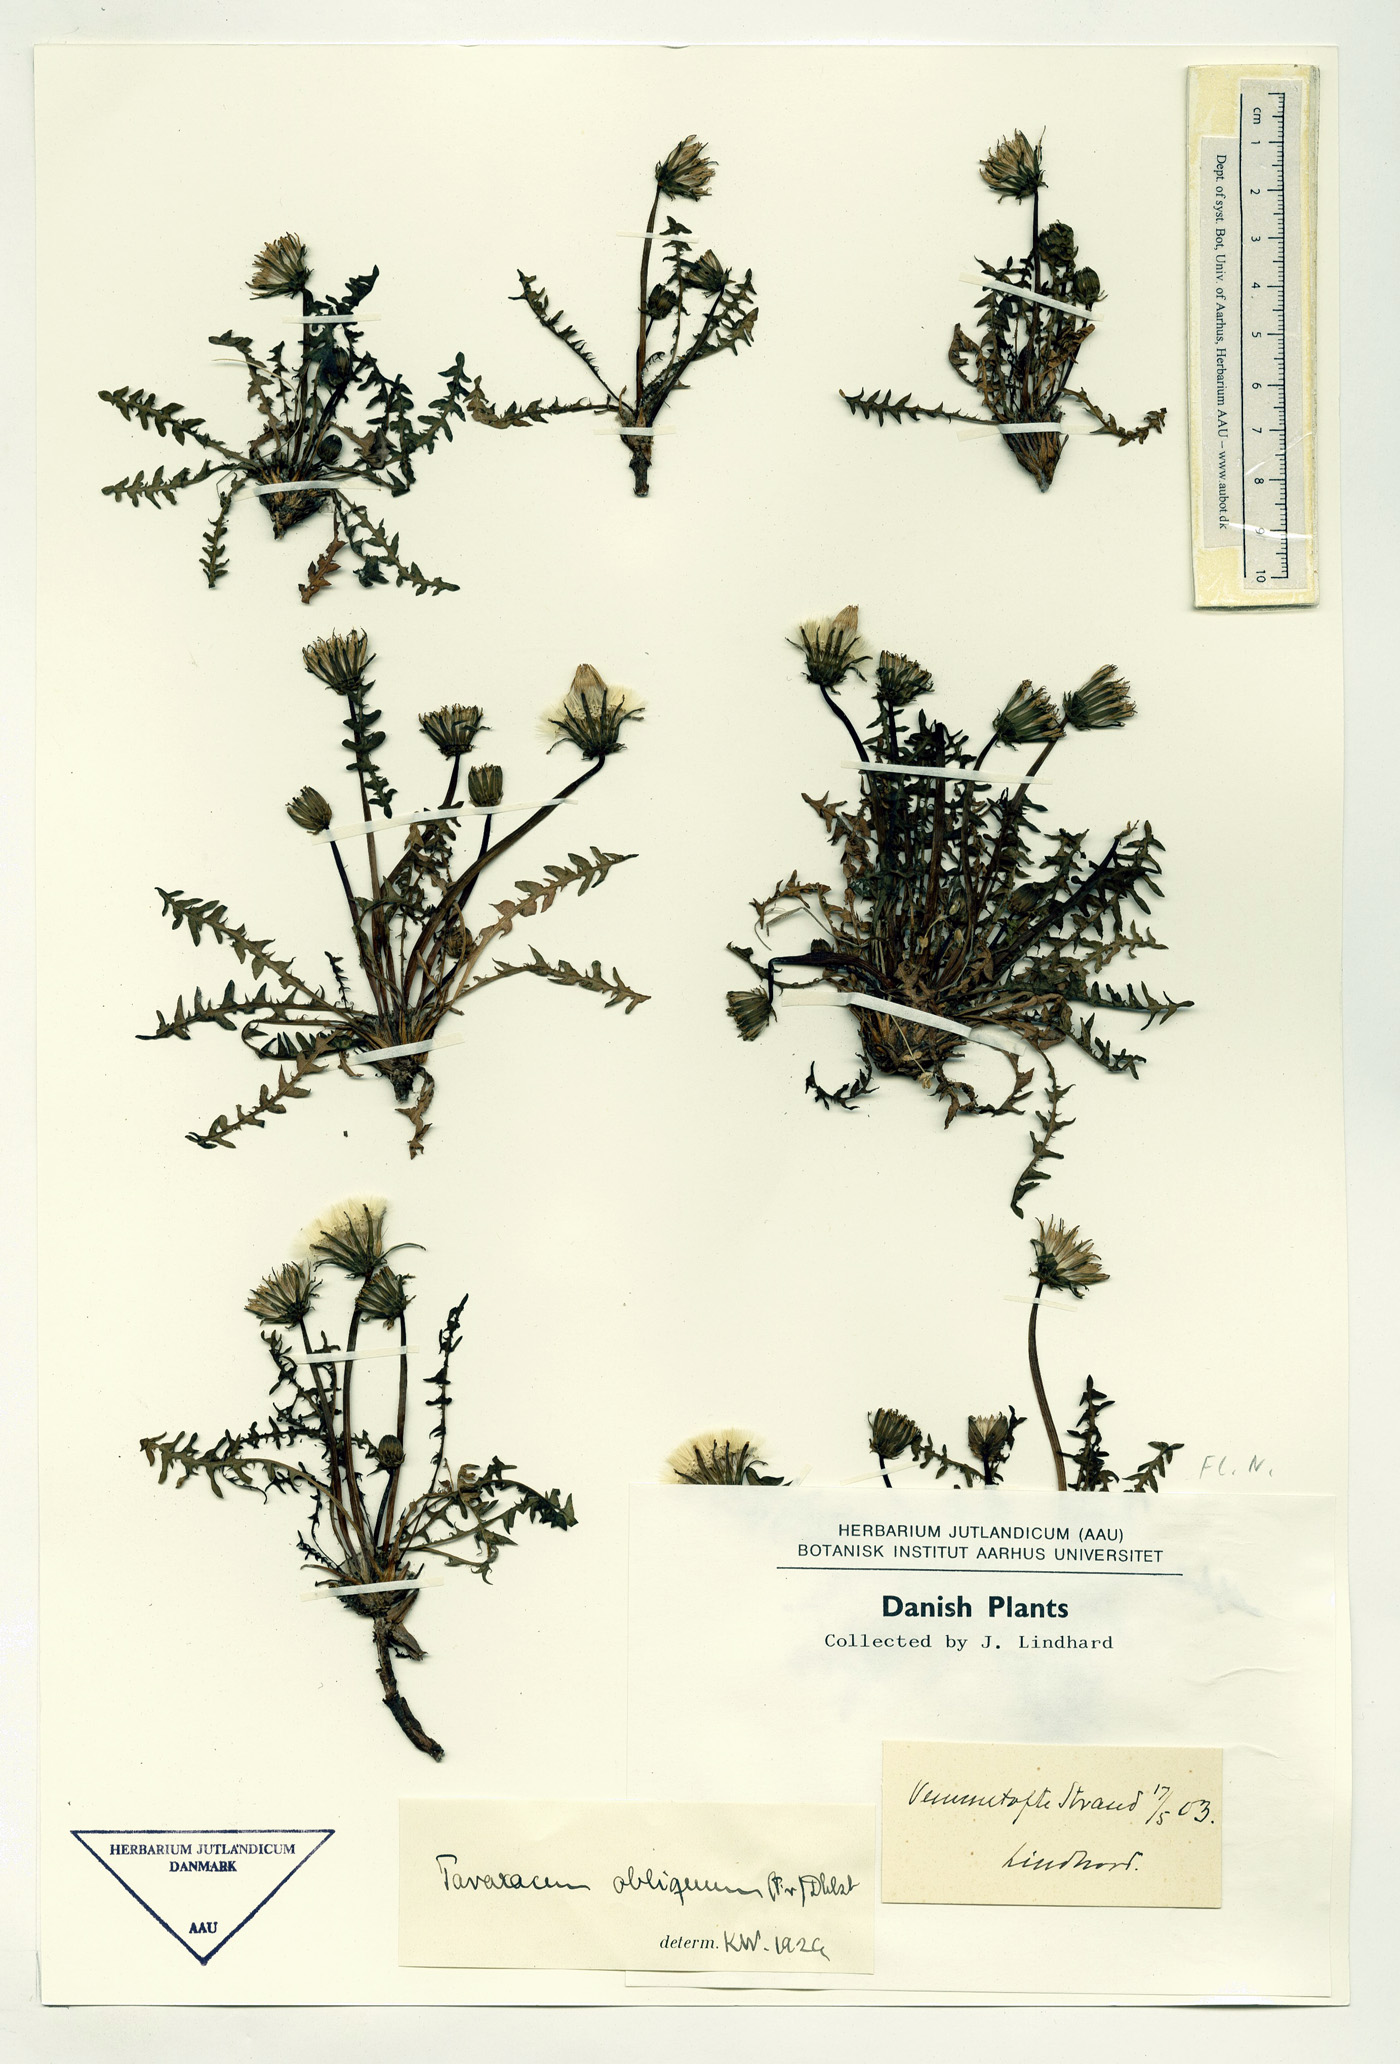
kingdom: Plantae
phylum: Tracheophyta
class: Magnoliopsida
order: Asterales
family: Asteraceae
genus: Taraxacum
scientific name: Taraxacum obliquum
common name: Many-lobed dandelion
